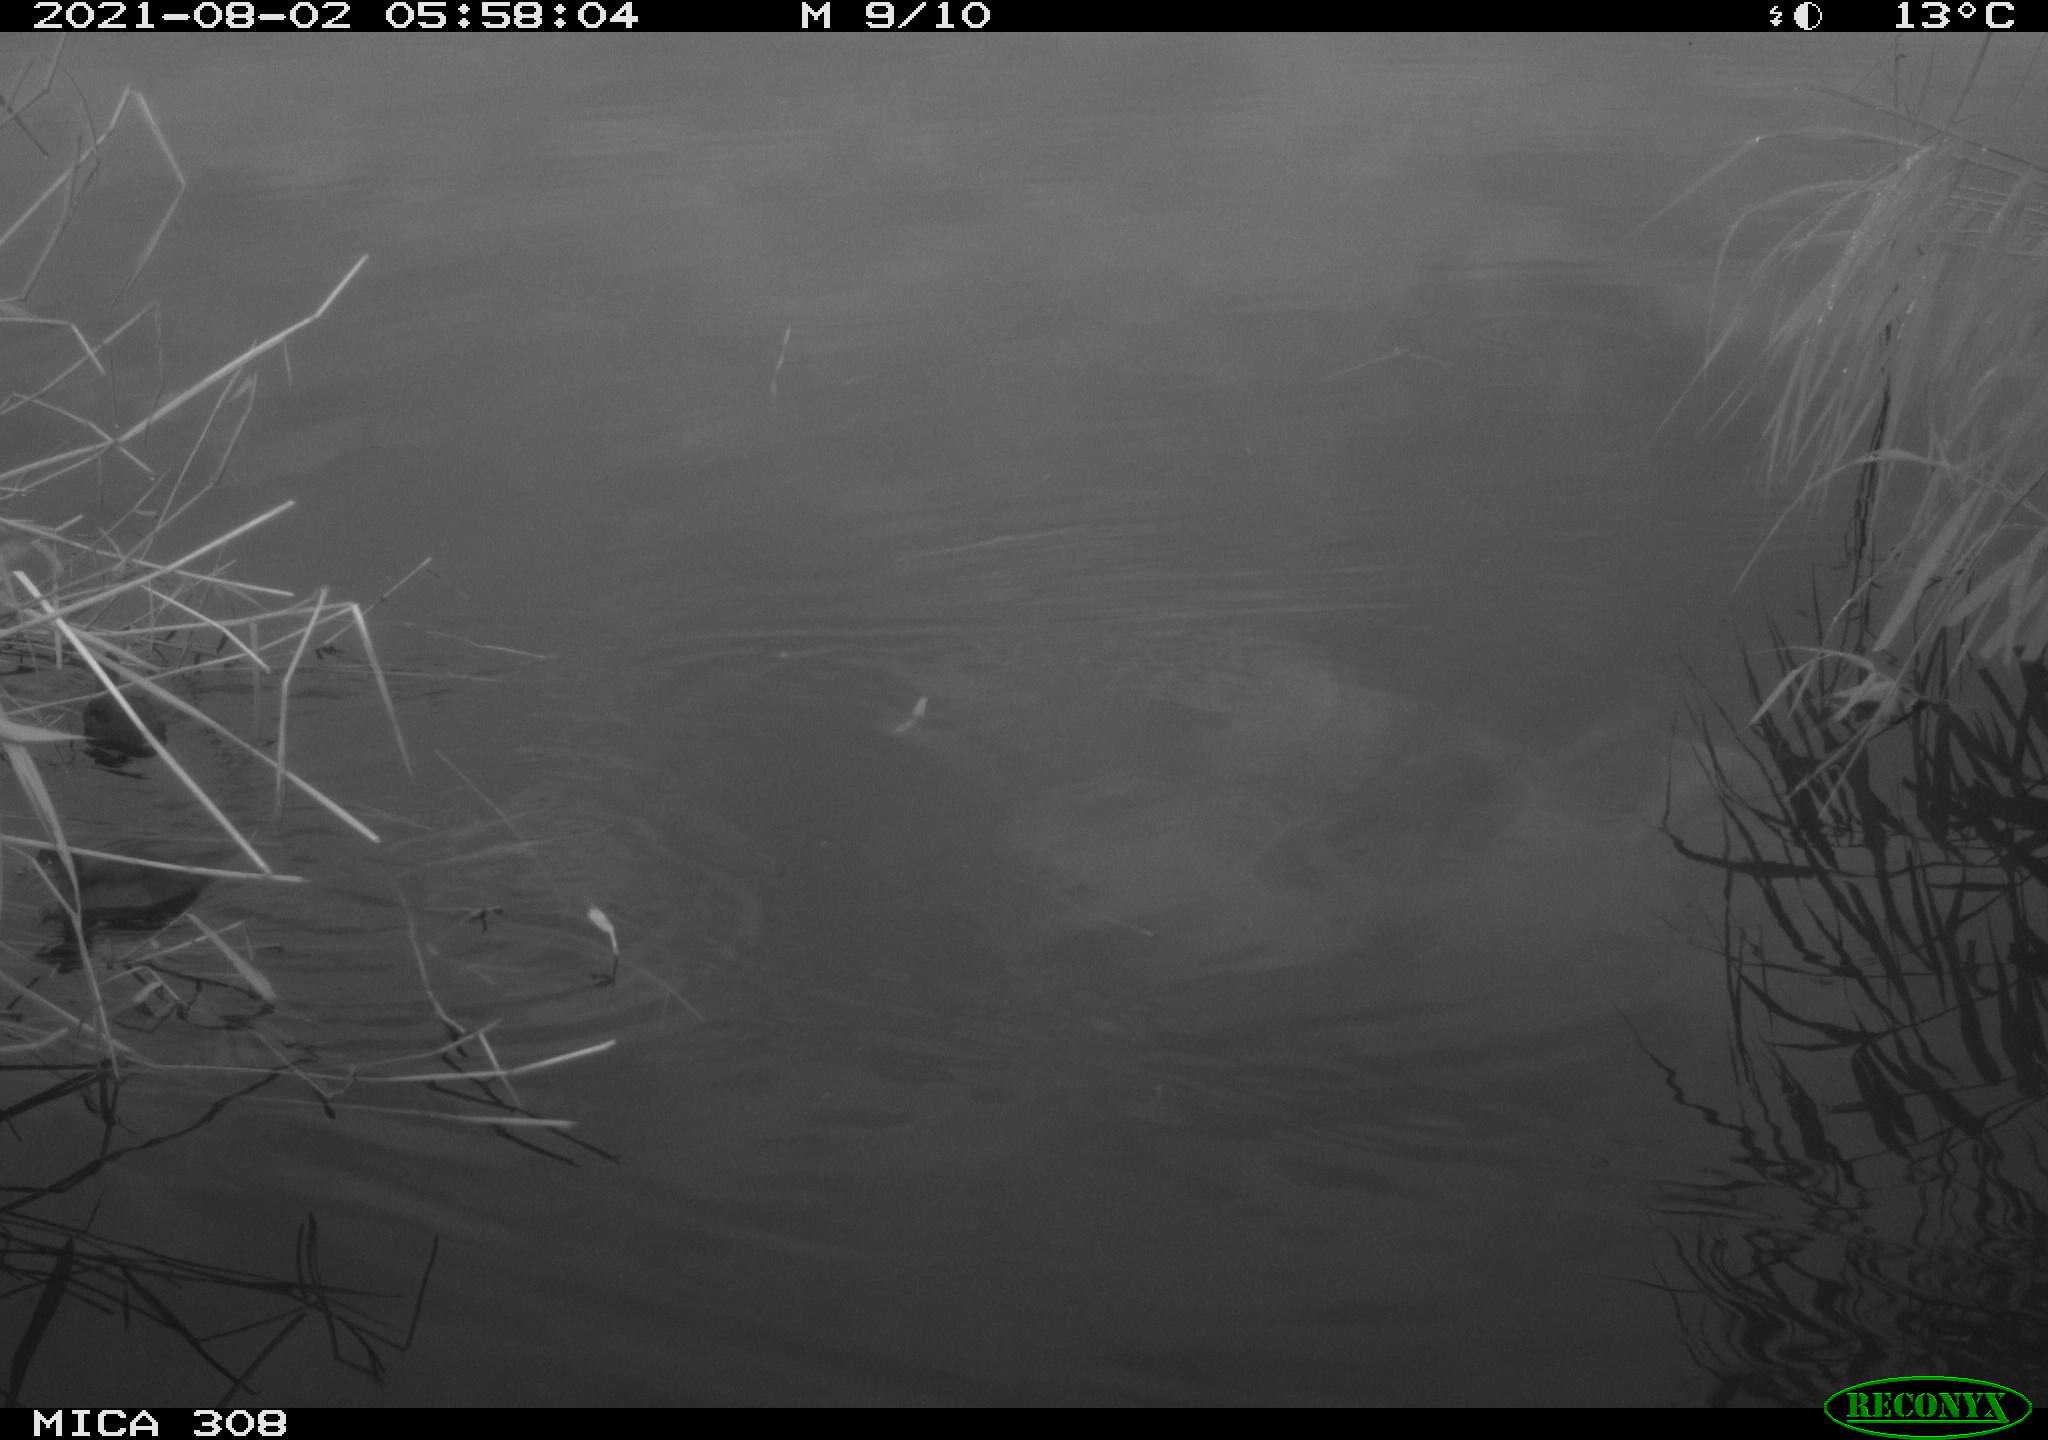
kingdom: Animalia
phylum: Chordata
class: Aves
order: Podicipediformes
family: Podicipedidae
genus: Tachybaptus
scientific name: Tachybaptus ruficollis
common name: Little grebe
